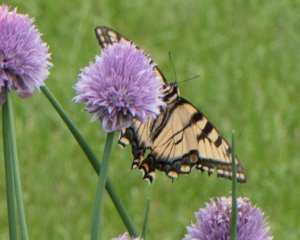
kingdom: Animalia
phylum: Arthropoda
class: Insecta
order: Lepidoptera
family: Papilionidae
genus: Pterourus
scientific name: Pterourus glaucus
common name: Eastern Tiger Swallowtail
